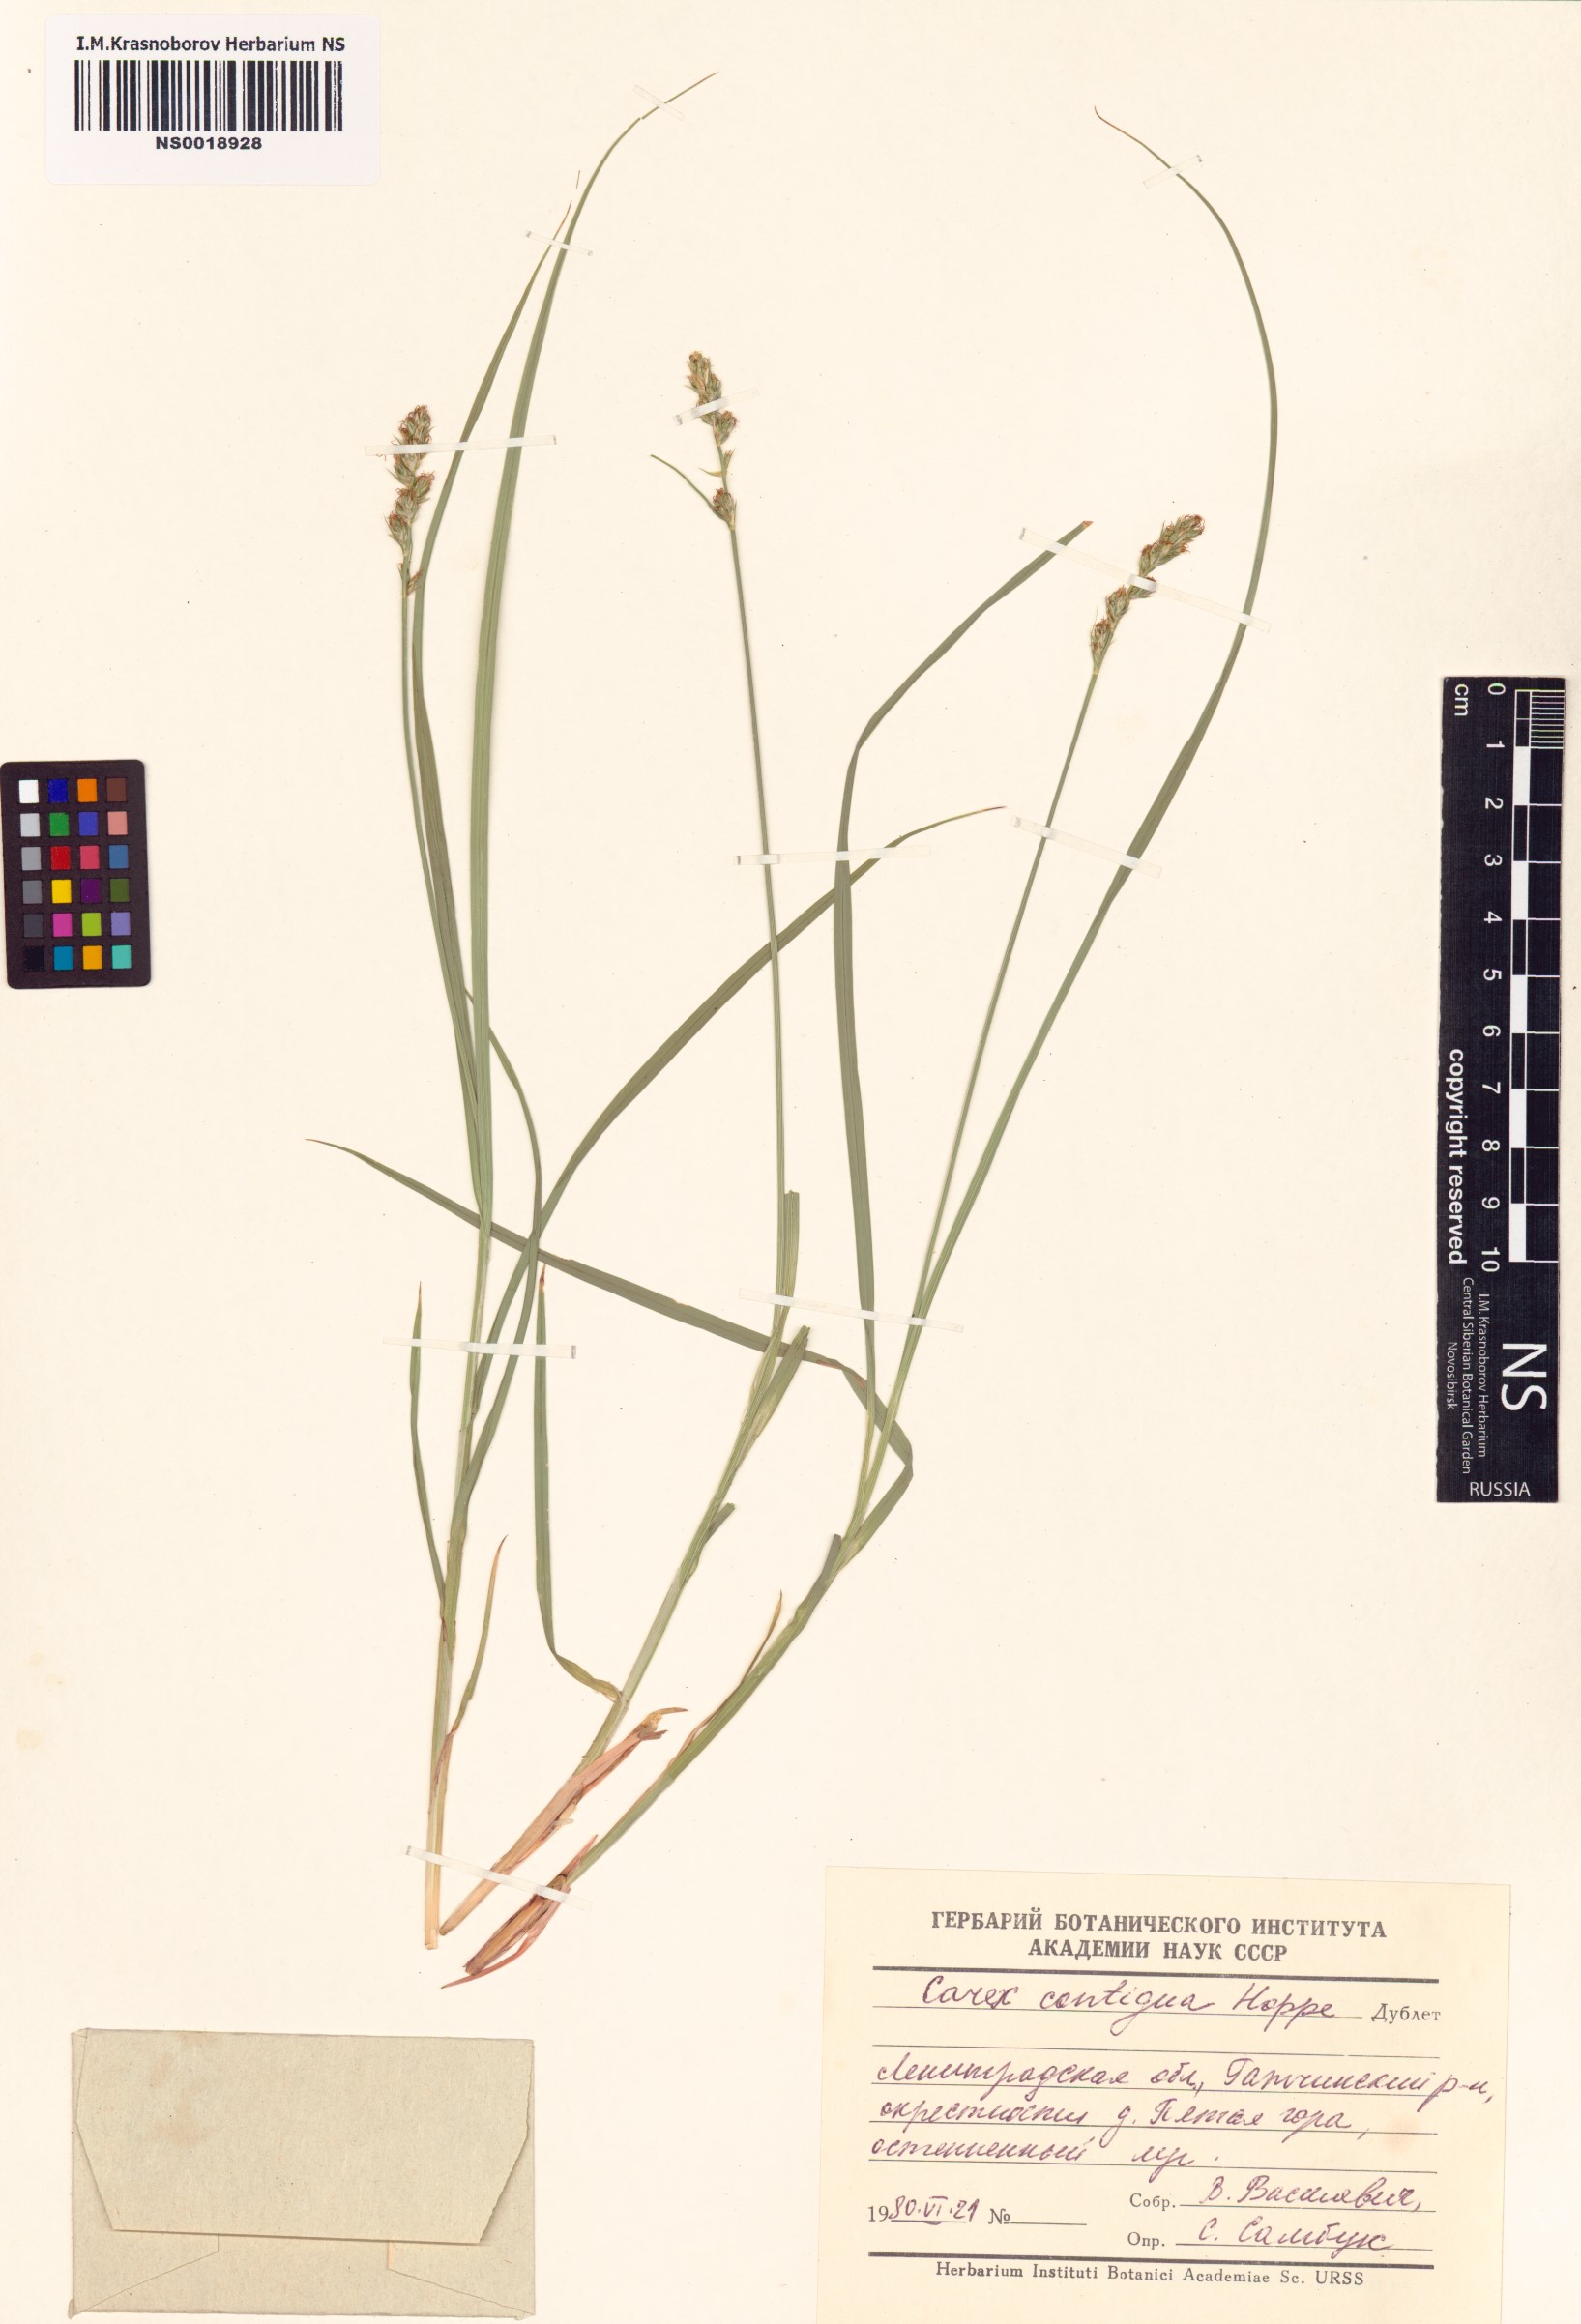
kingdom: Plantae
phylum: Tracheophyta
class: Liliopsida
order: Poales
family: Cyperaceae
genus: Carex
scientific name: Carex spicata
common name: Spiked sedge
